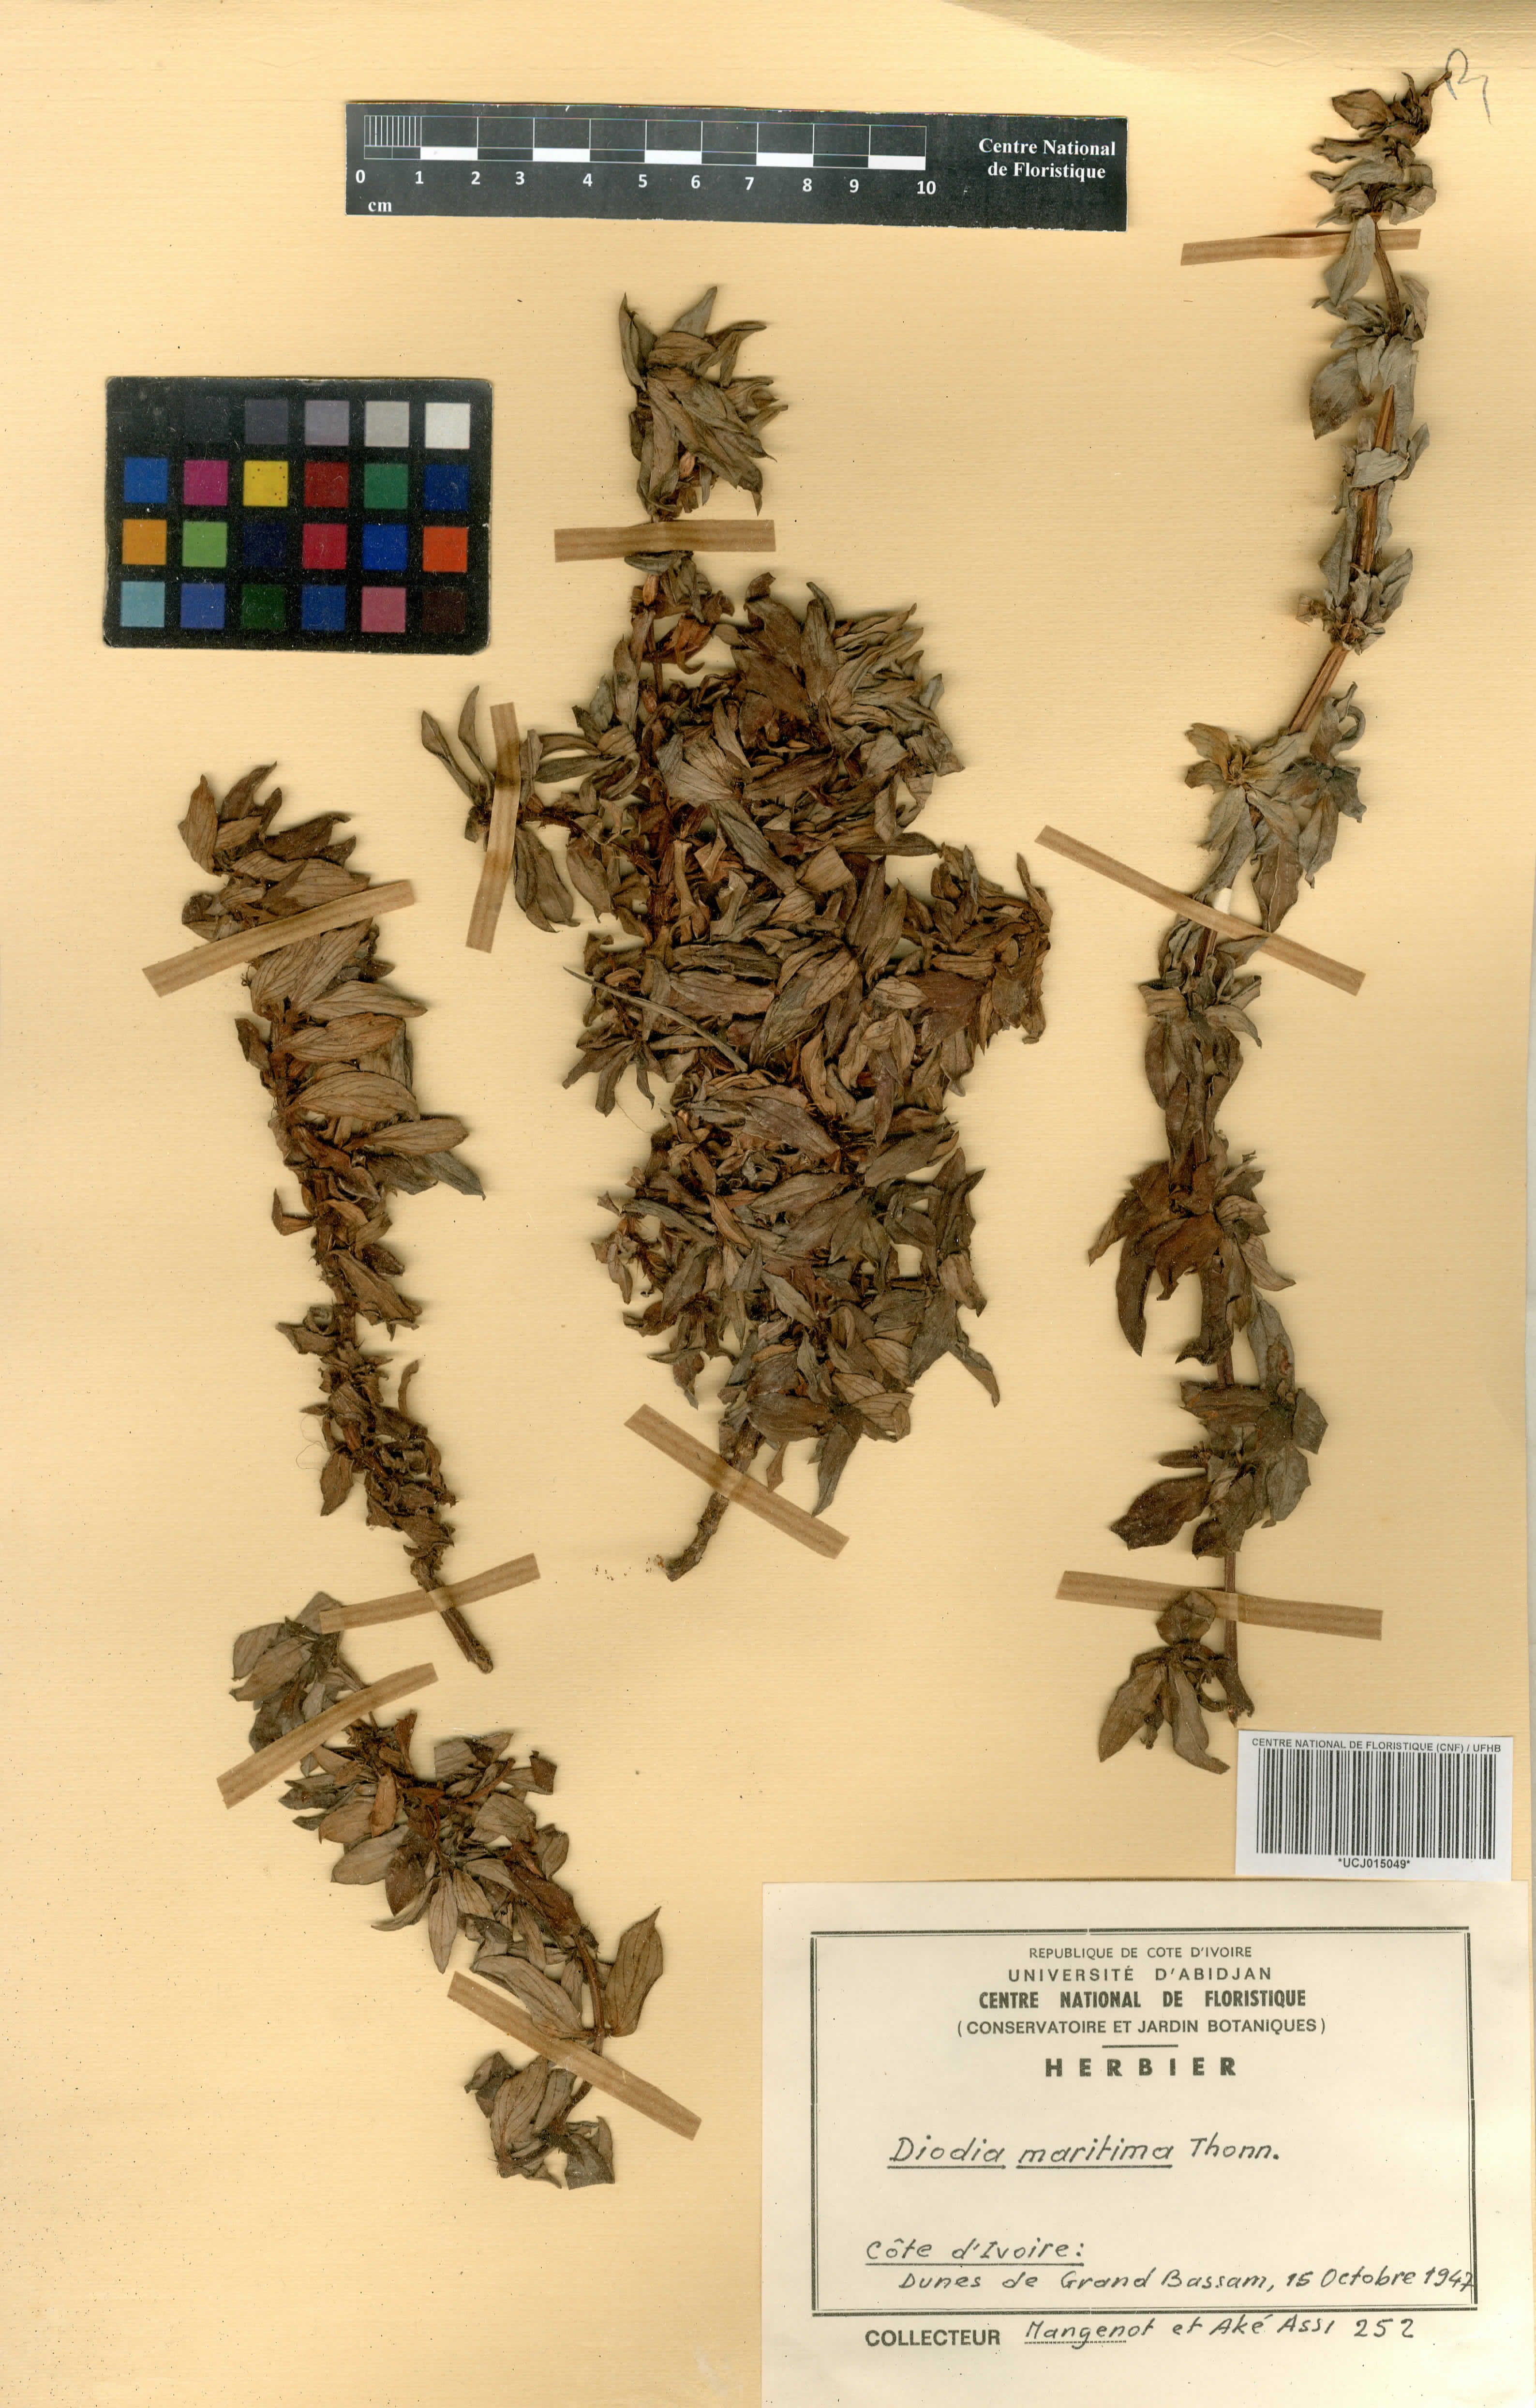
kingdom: Plantae
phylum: Tracheophyta
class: Magnoliopsida
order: Gentianales
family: Rubiaceae
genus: Hexasepalum
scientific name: Hexasepalum serrulatum
